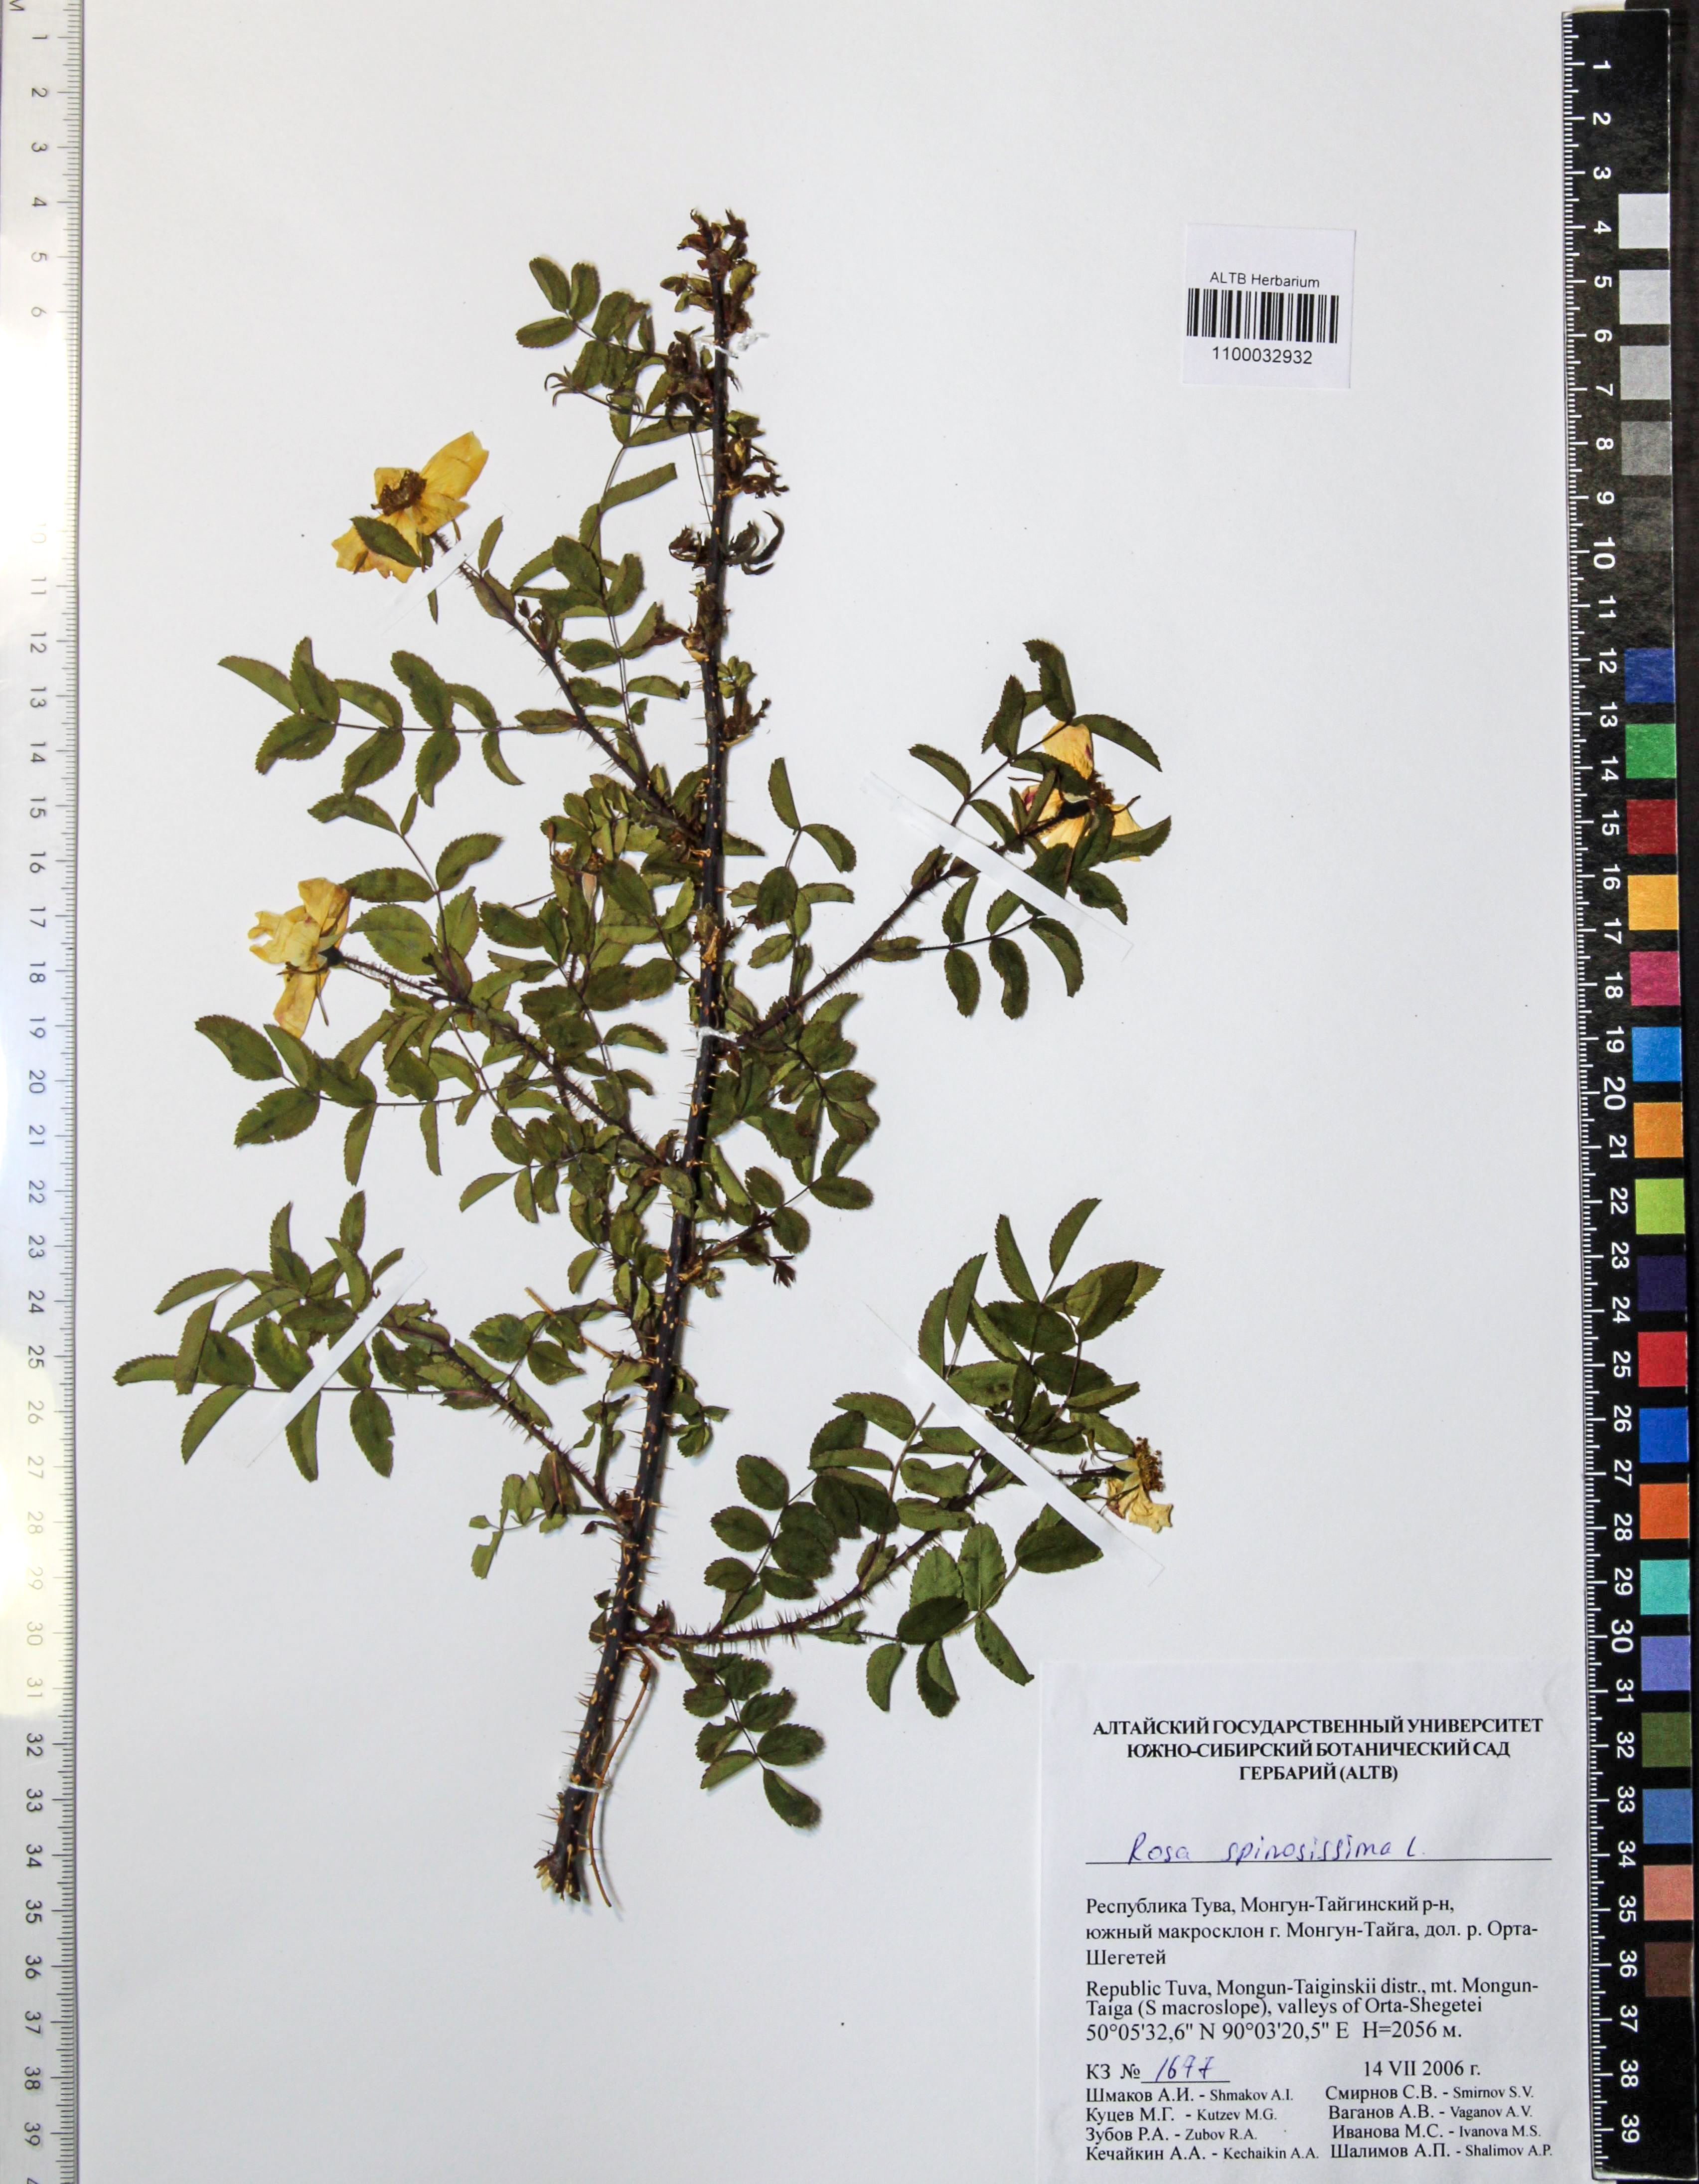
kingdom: Plantae
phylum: Tracheophyta
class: Magnoliopsida
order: Rosales
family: Rosaceae
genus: Rosa
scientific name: Rosa spinosissima
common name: Burnet rose
